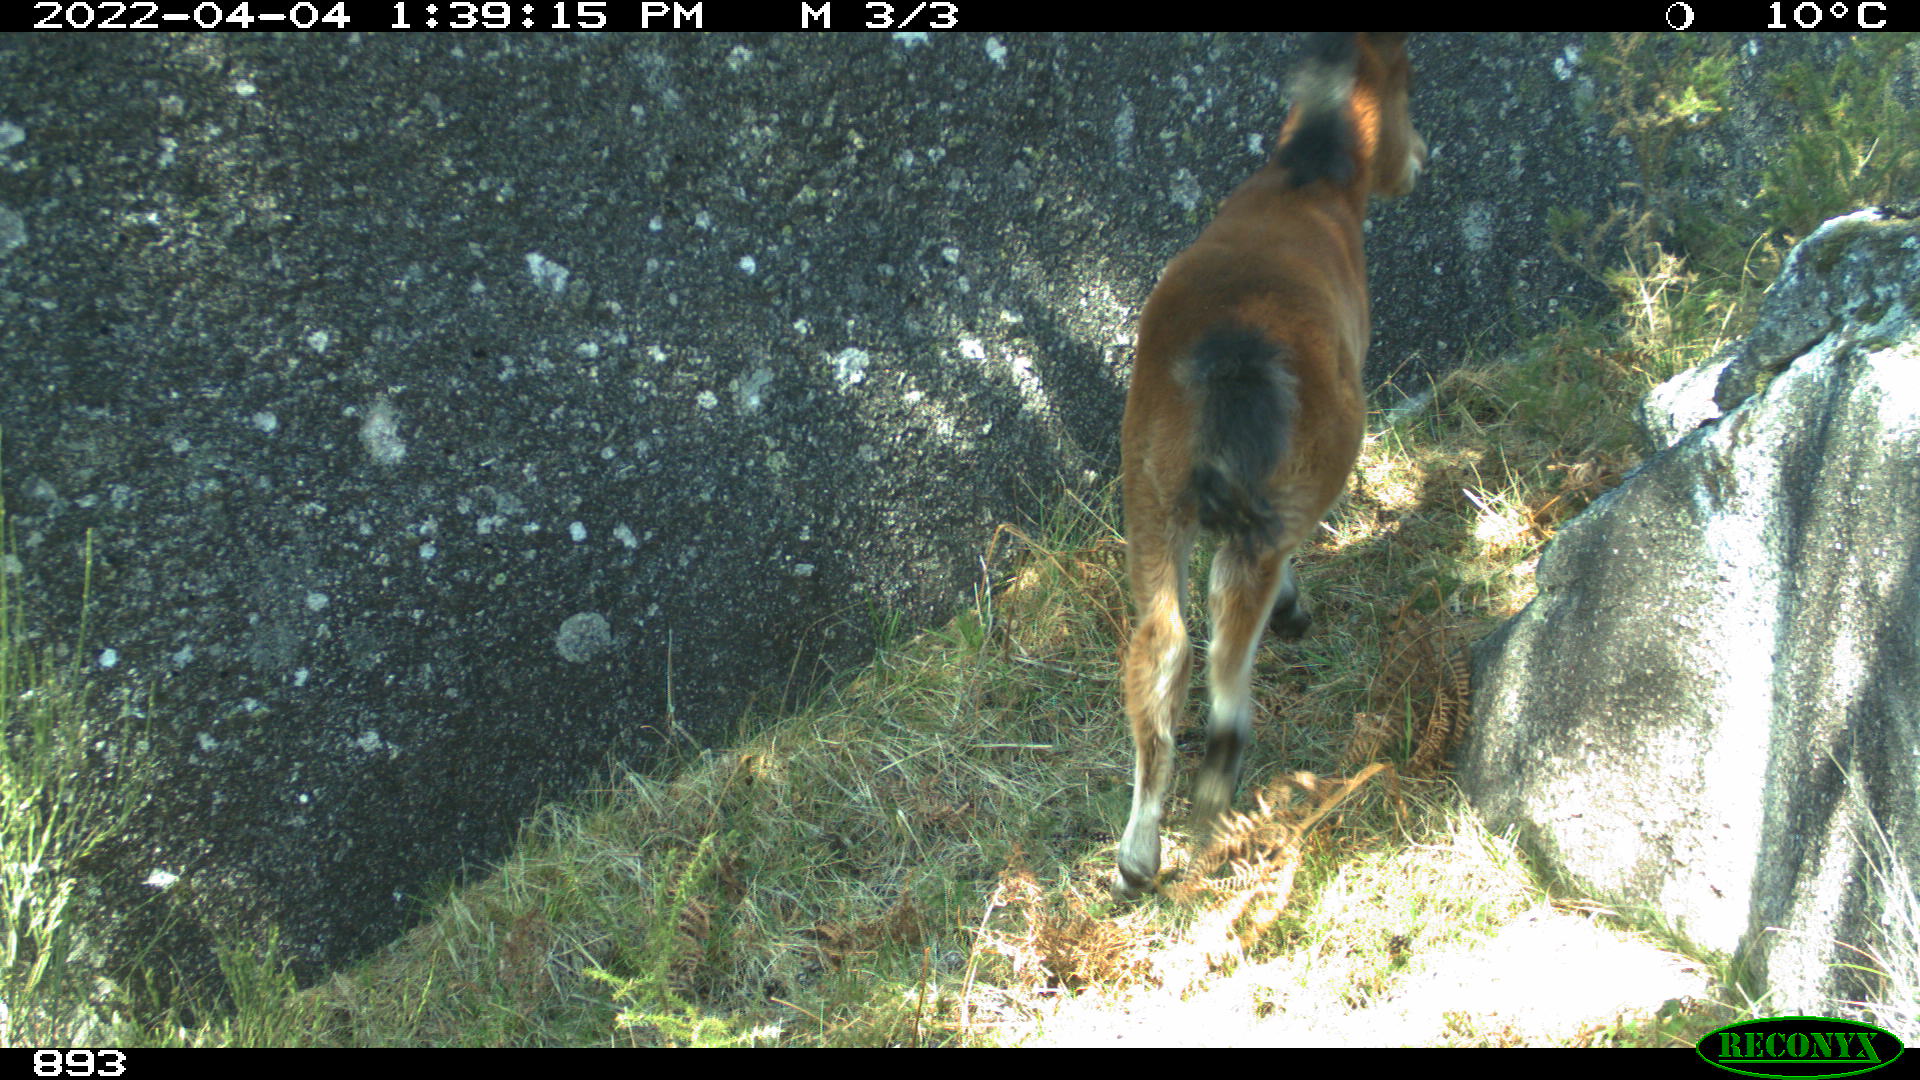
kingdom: Animalia
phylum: Chordata
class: Mammalia
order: Perissodactyla
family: Equidae
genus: Equus
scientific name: Equus caballus
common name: Horse
